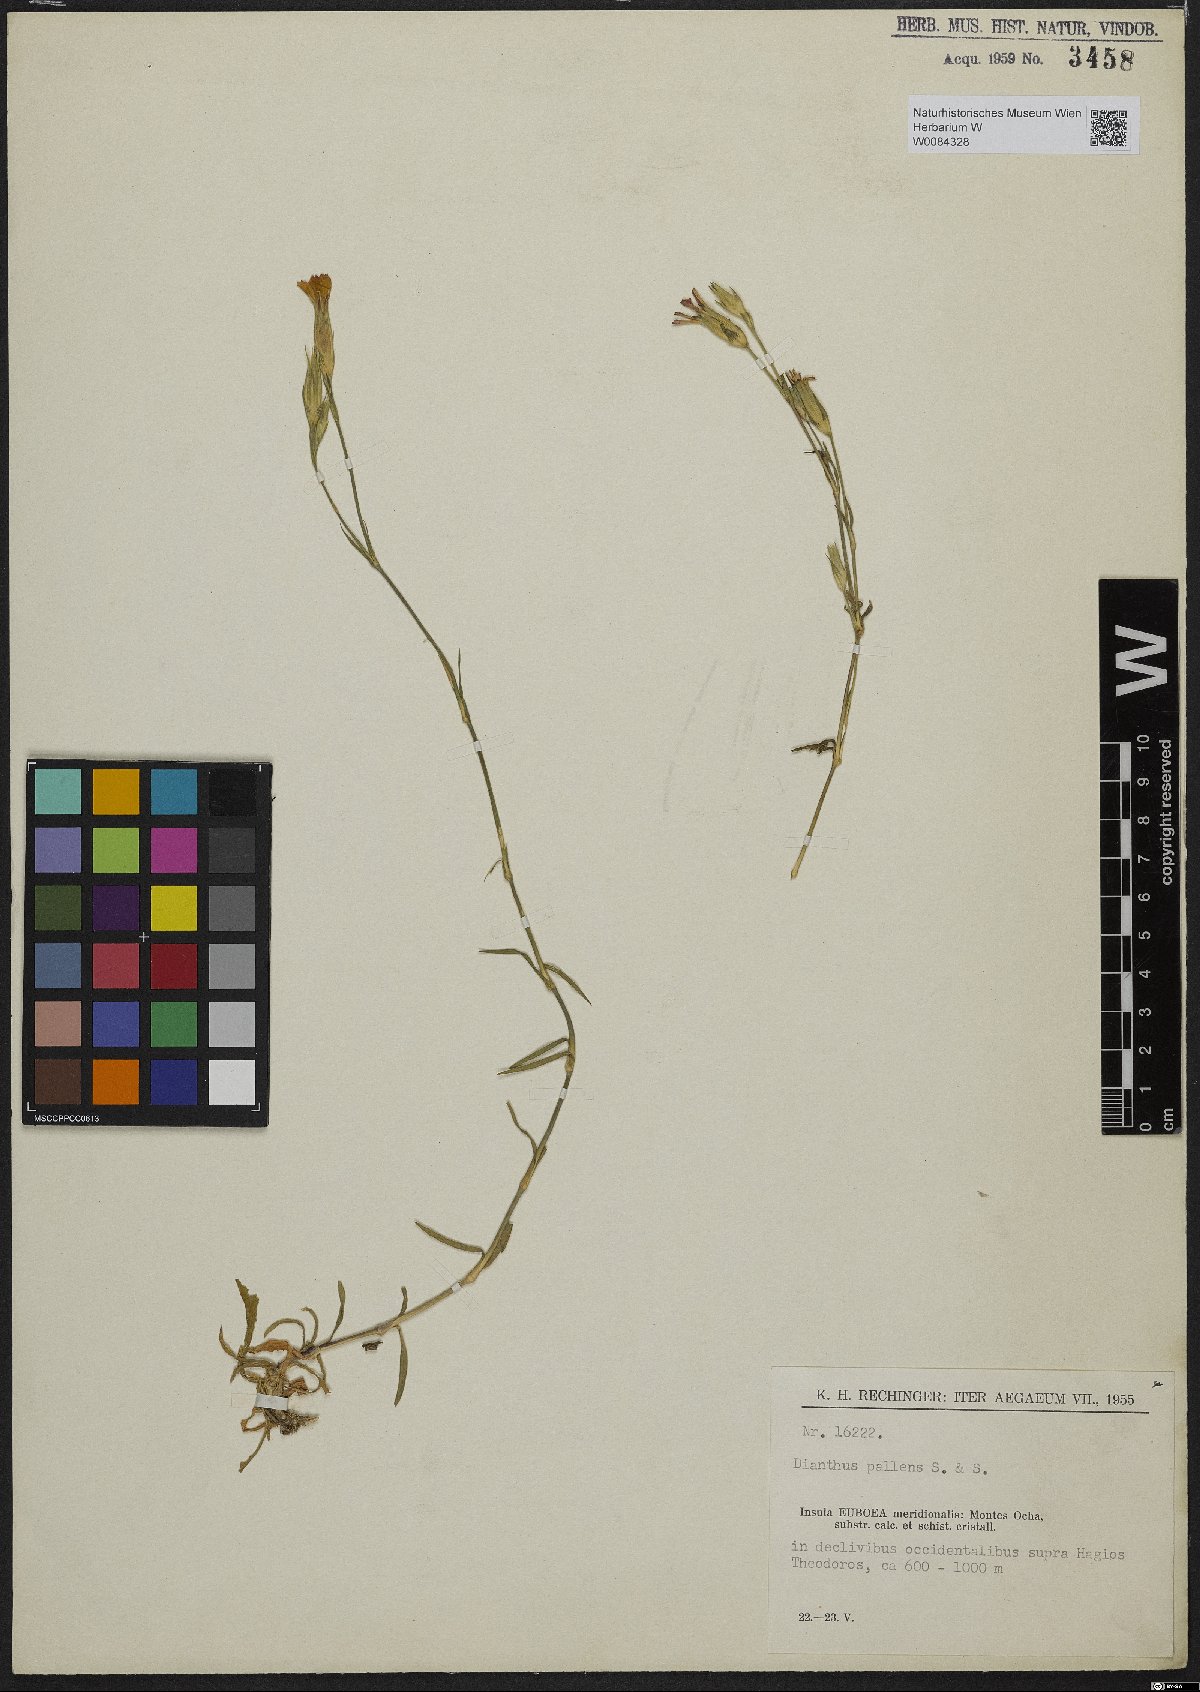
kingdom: Plantae
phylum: Tracheophyta
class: Magnoliopsida
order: Caryophyllales
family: Caryophyllaceae
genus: Dianthus
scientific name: Dianthus monadelphus
